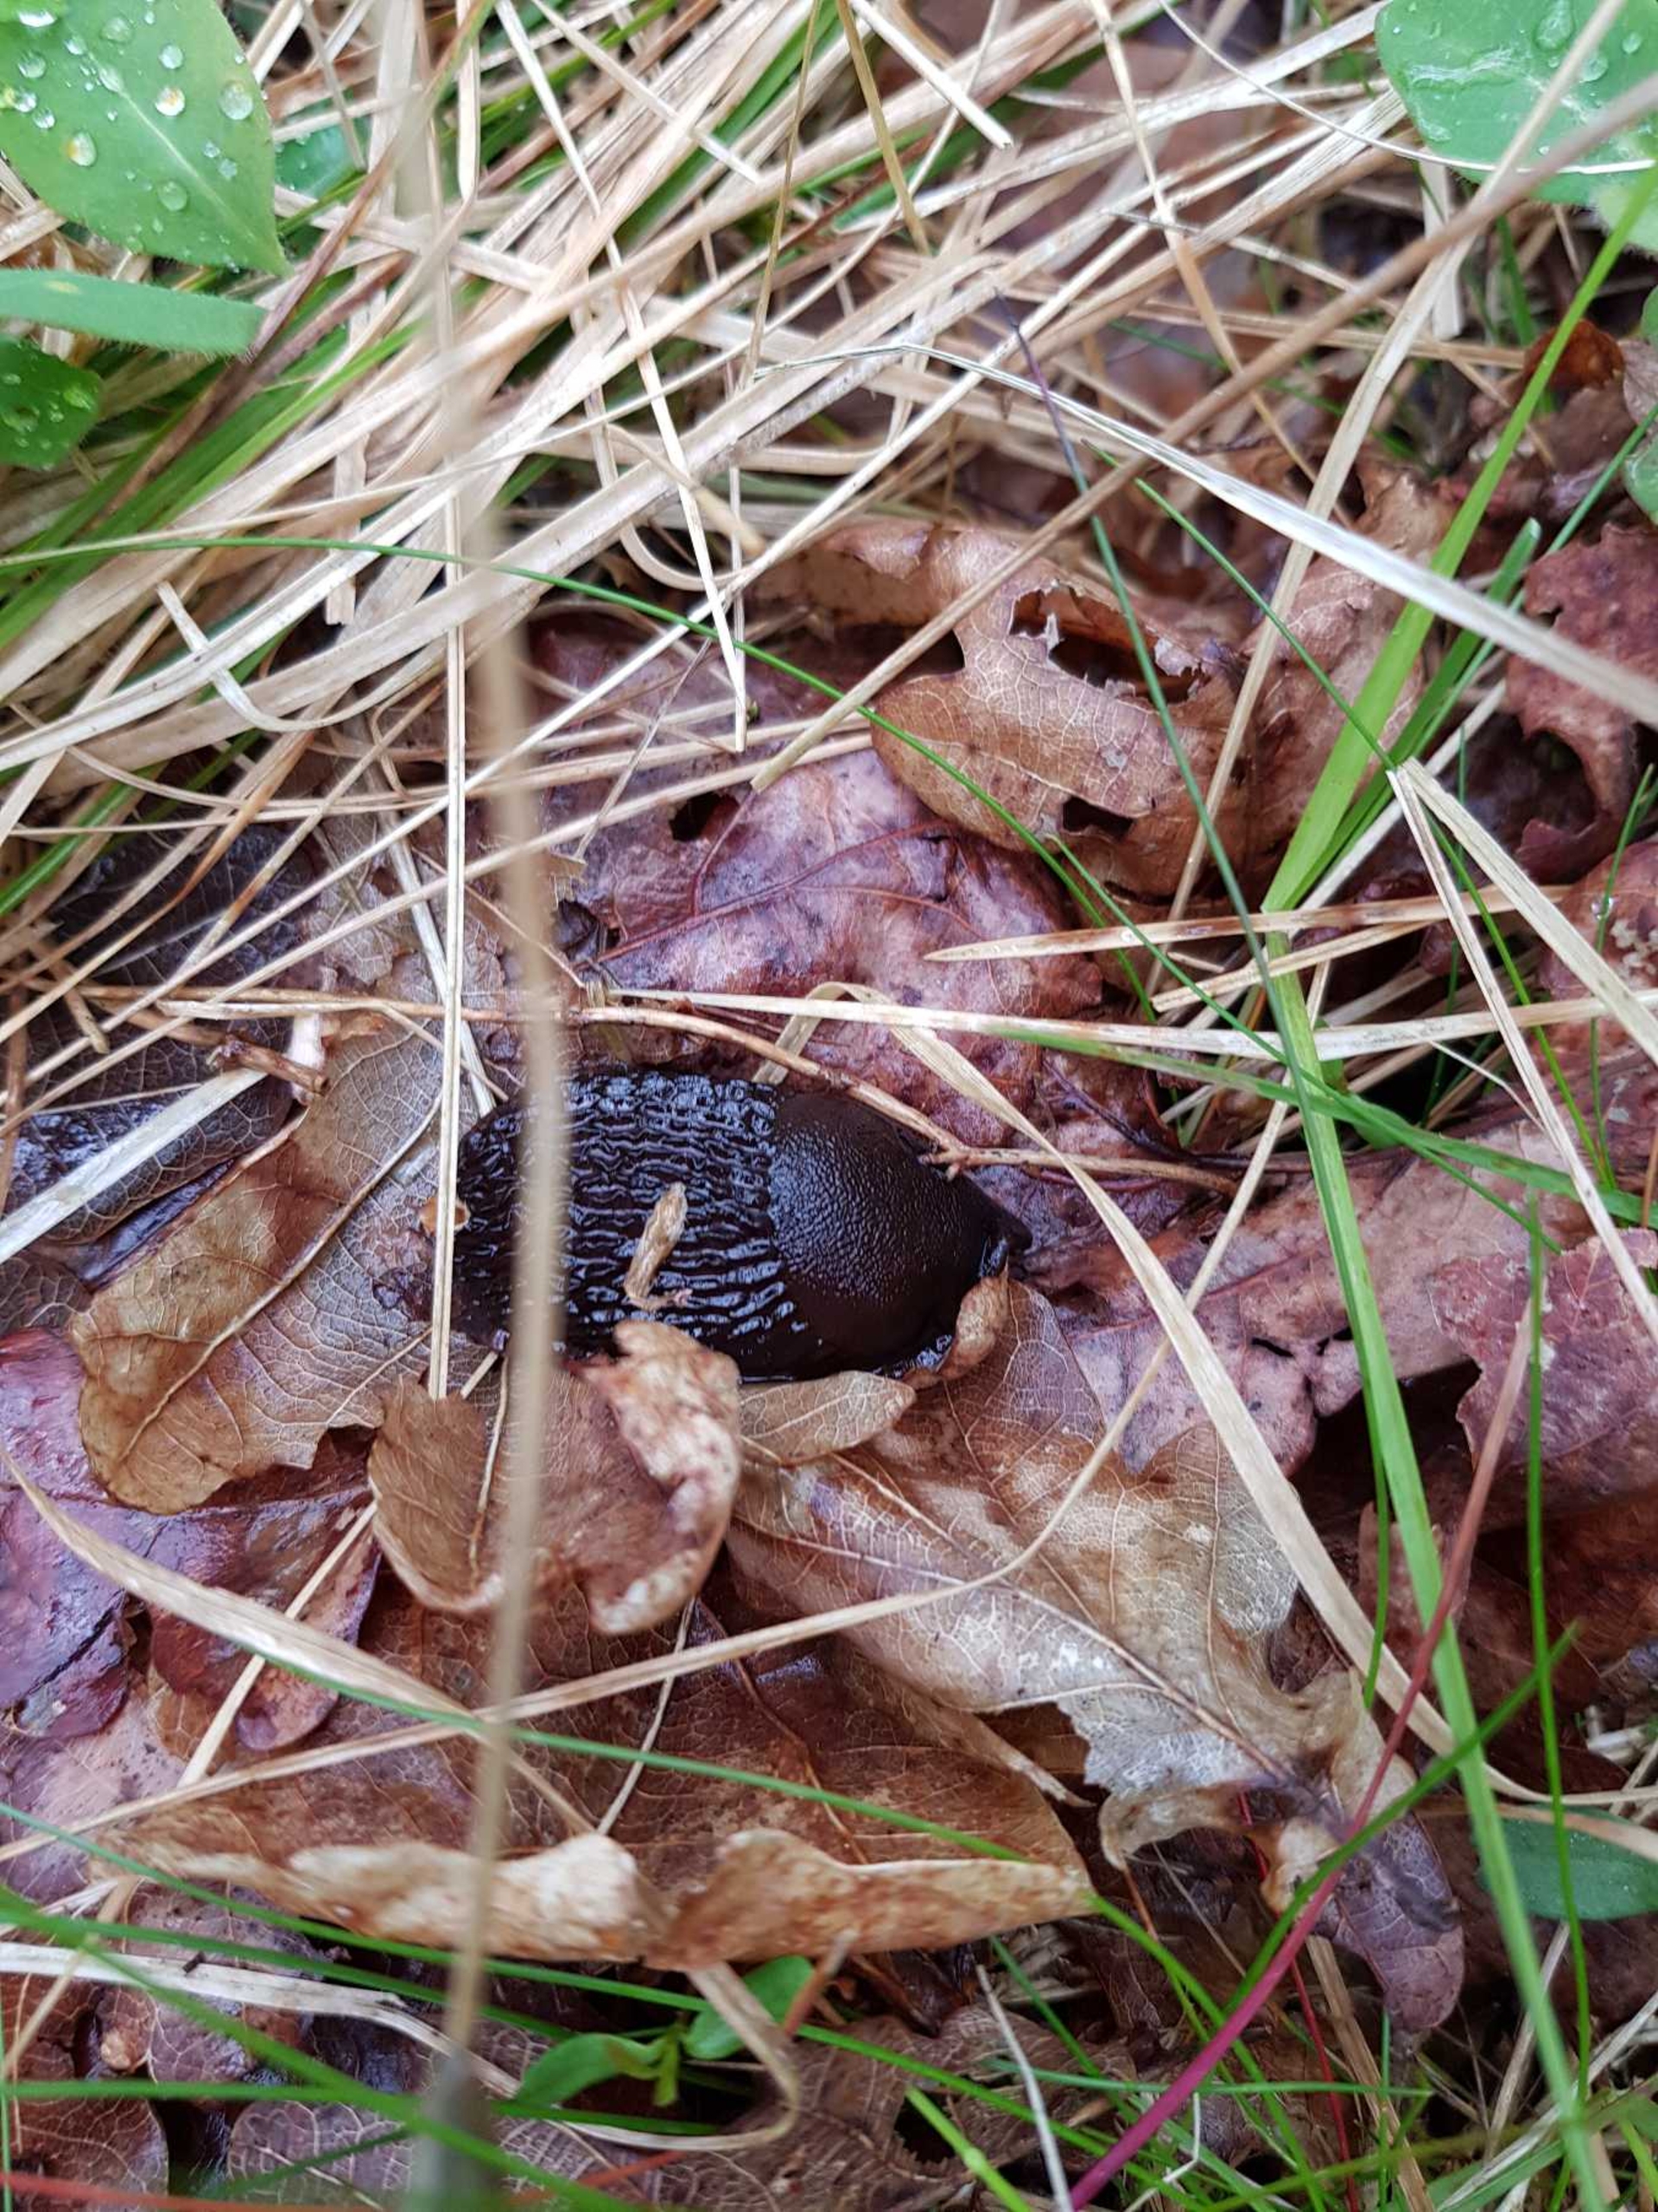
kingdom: Animalia
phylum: Mollusca
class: Gastropoda
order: Stylommatophora
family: Arionidae
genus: Arion
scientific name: Arion ater
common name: Sort skovsnegl
